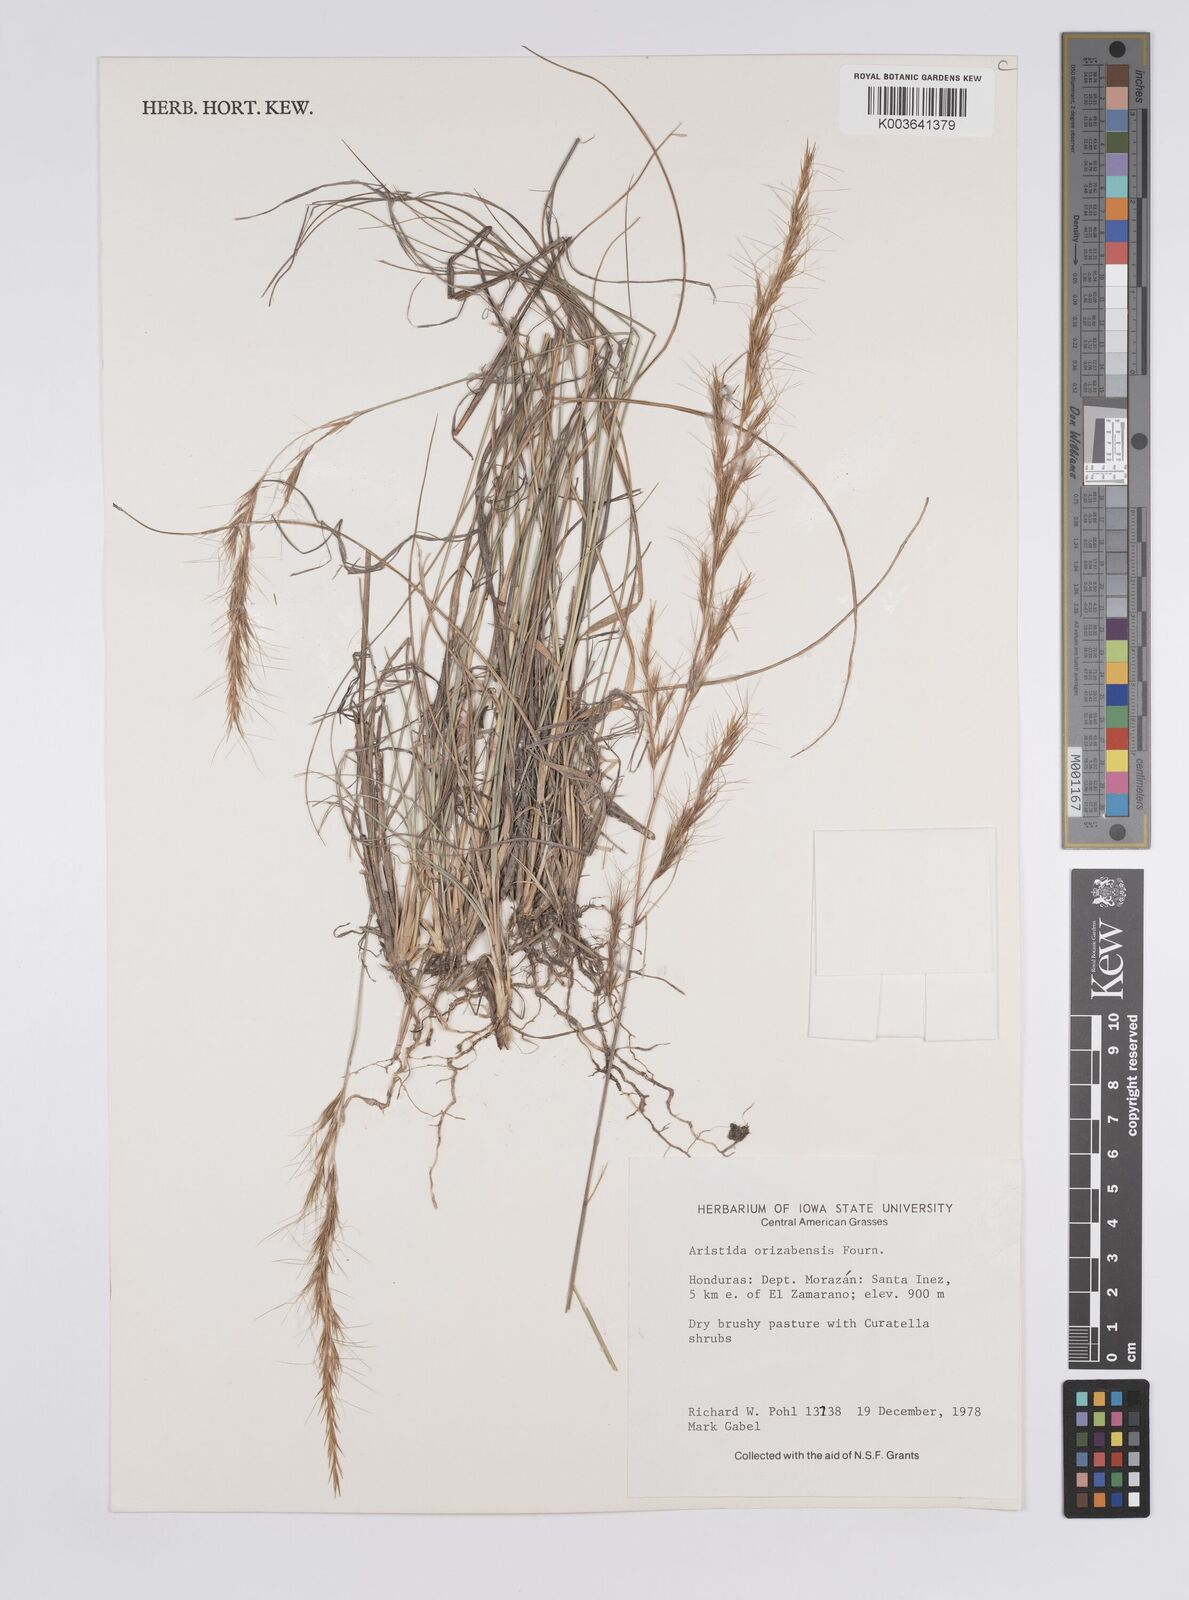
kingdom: Plantae
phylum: Tracheophyta
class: Liliopsida
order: Poales
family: Poaceae
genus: Aristida
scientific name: Aristida gibbosa
